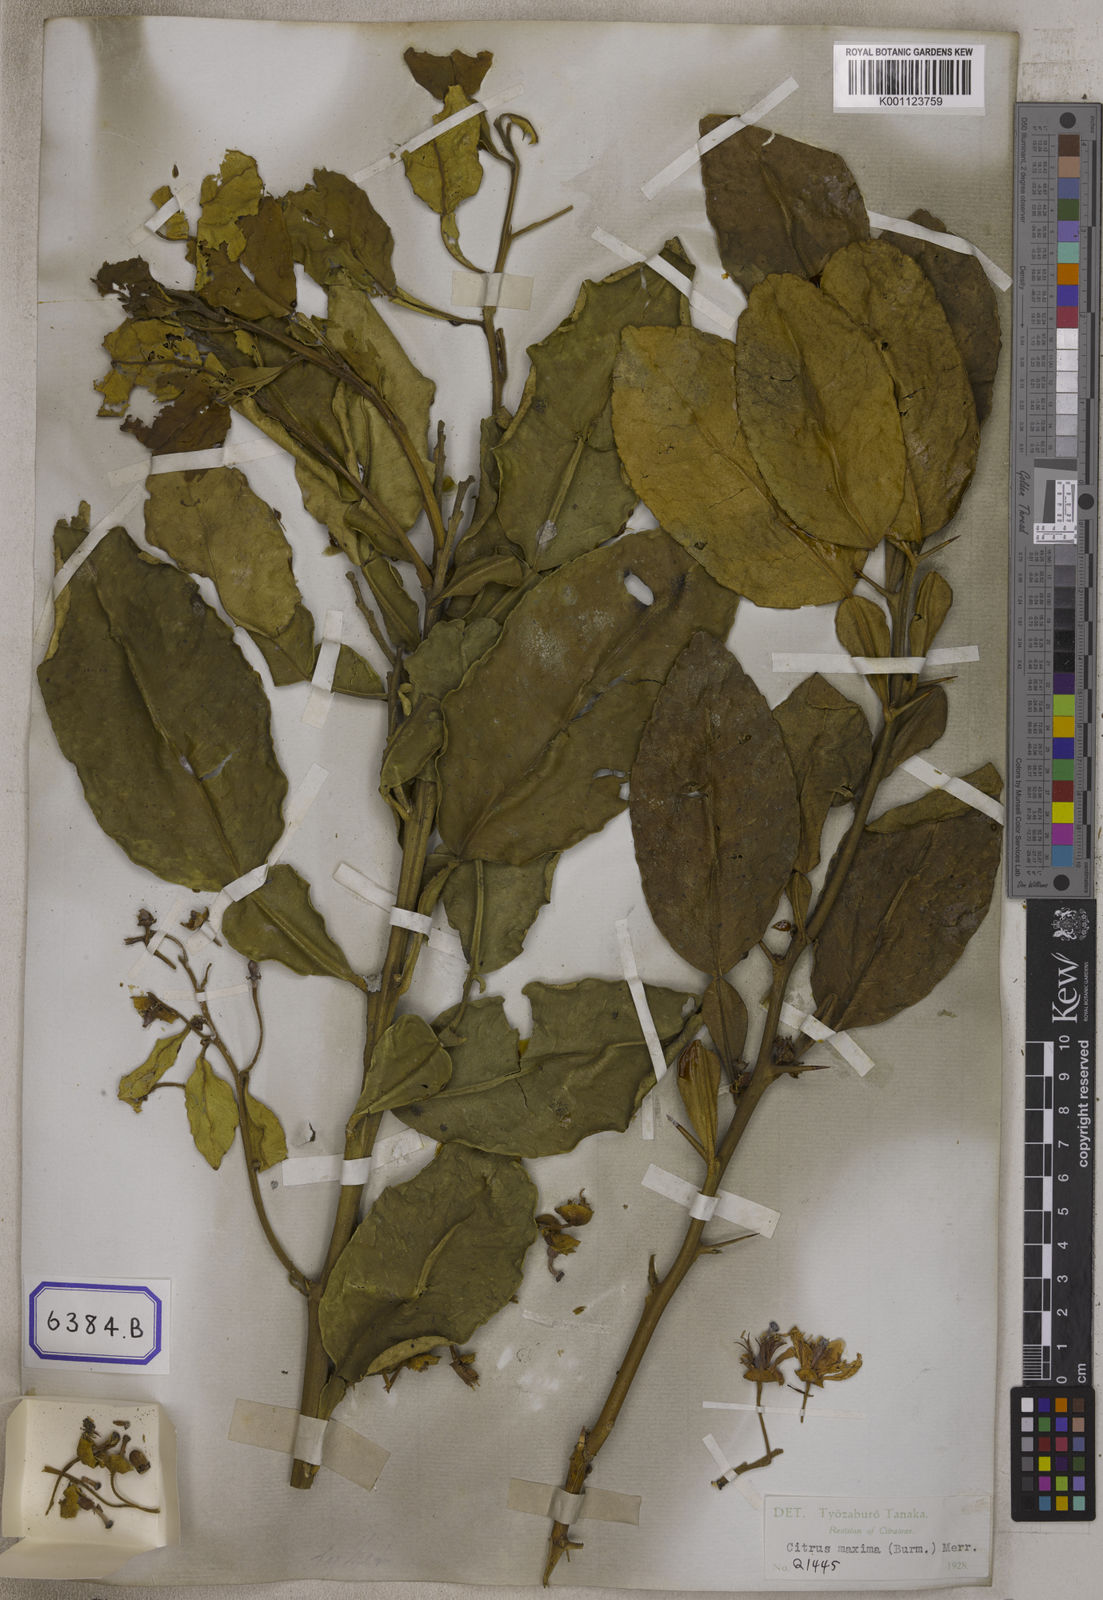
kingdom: Plantae
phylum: Tracheophyta
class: Magnoliopsida
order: Sapindales
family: Rutaceae
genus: Citrus
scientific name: Citrus
